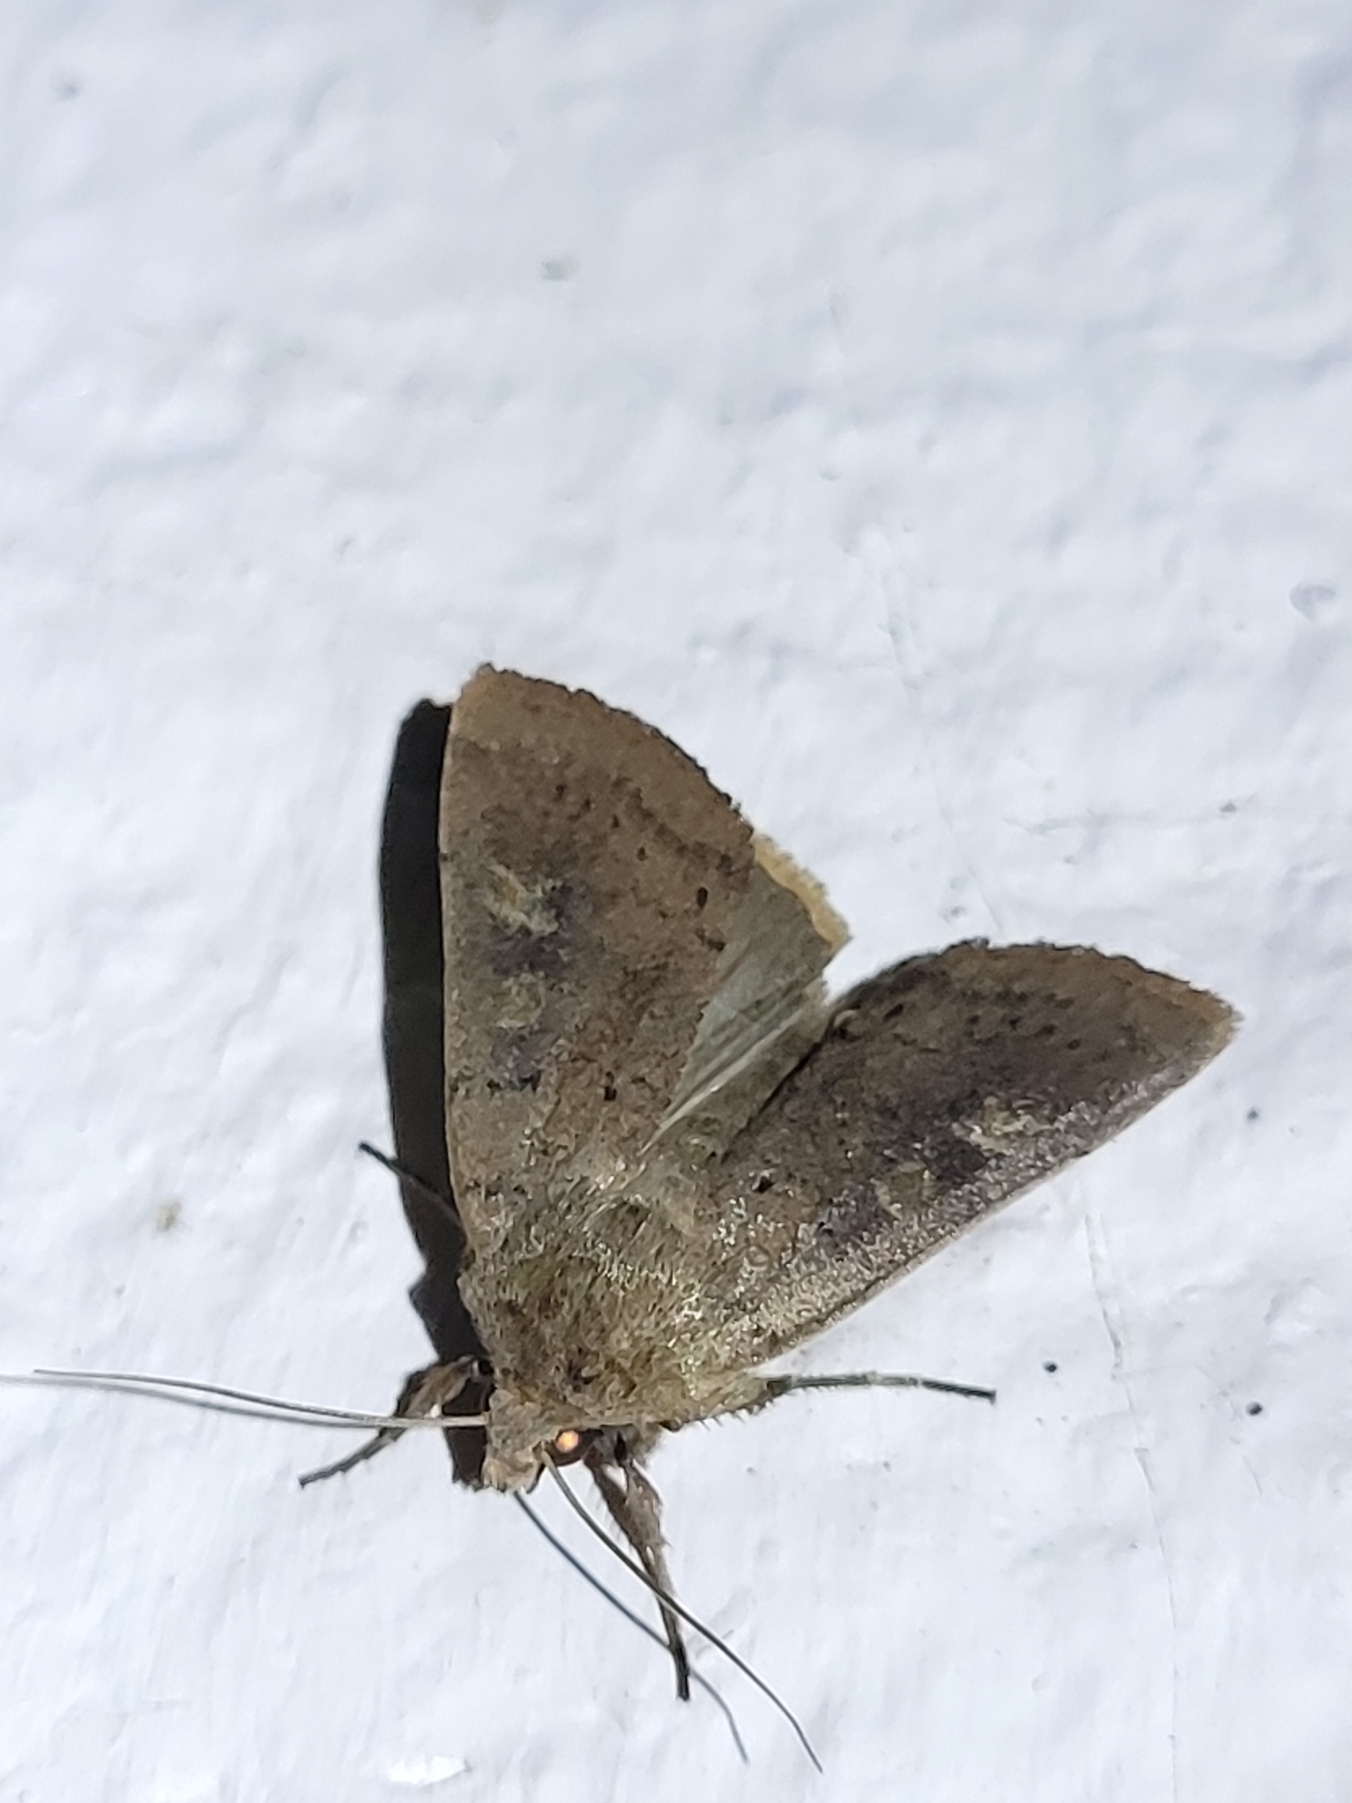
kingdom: Animalia
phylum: Arthropoda
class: Insecta
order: Lepidoptera
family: Noctuidae
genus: Xestia
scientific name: Xestia xanthographa
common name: Gulmærket glansugle
